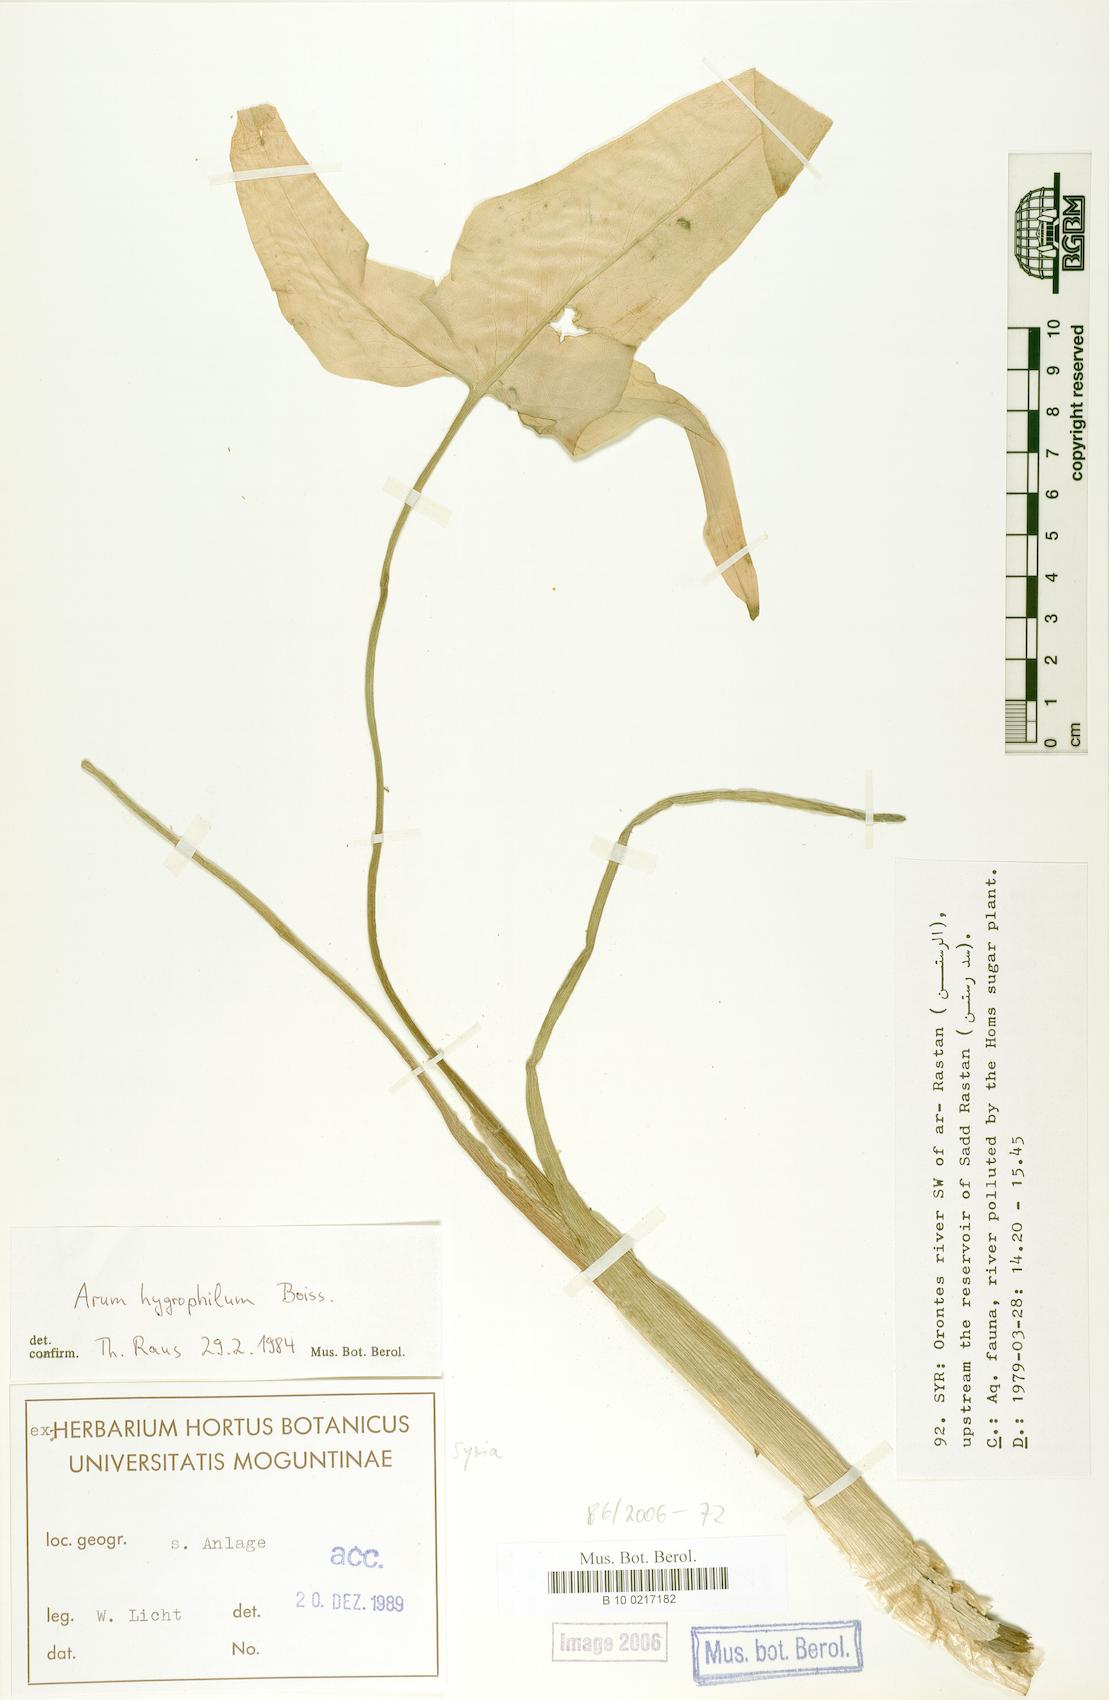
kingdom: Plantae
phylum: Tracheophyta
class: Liliopsida
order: Alismatales
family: Araceae
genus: Arum
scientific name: Arum hygrophilum
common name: Water arum
